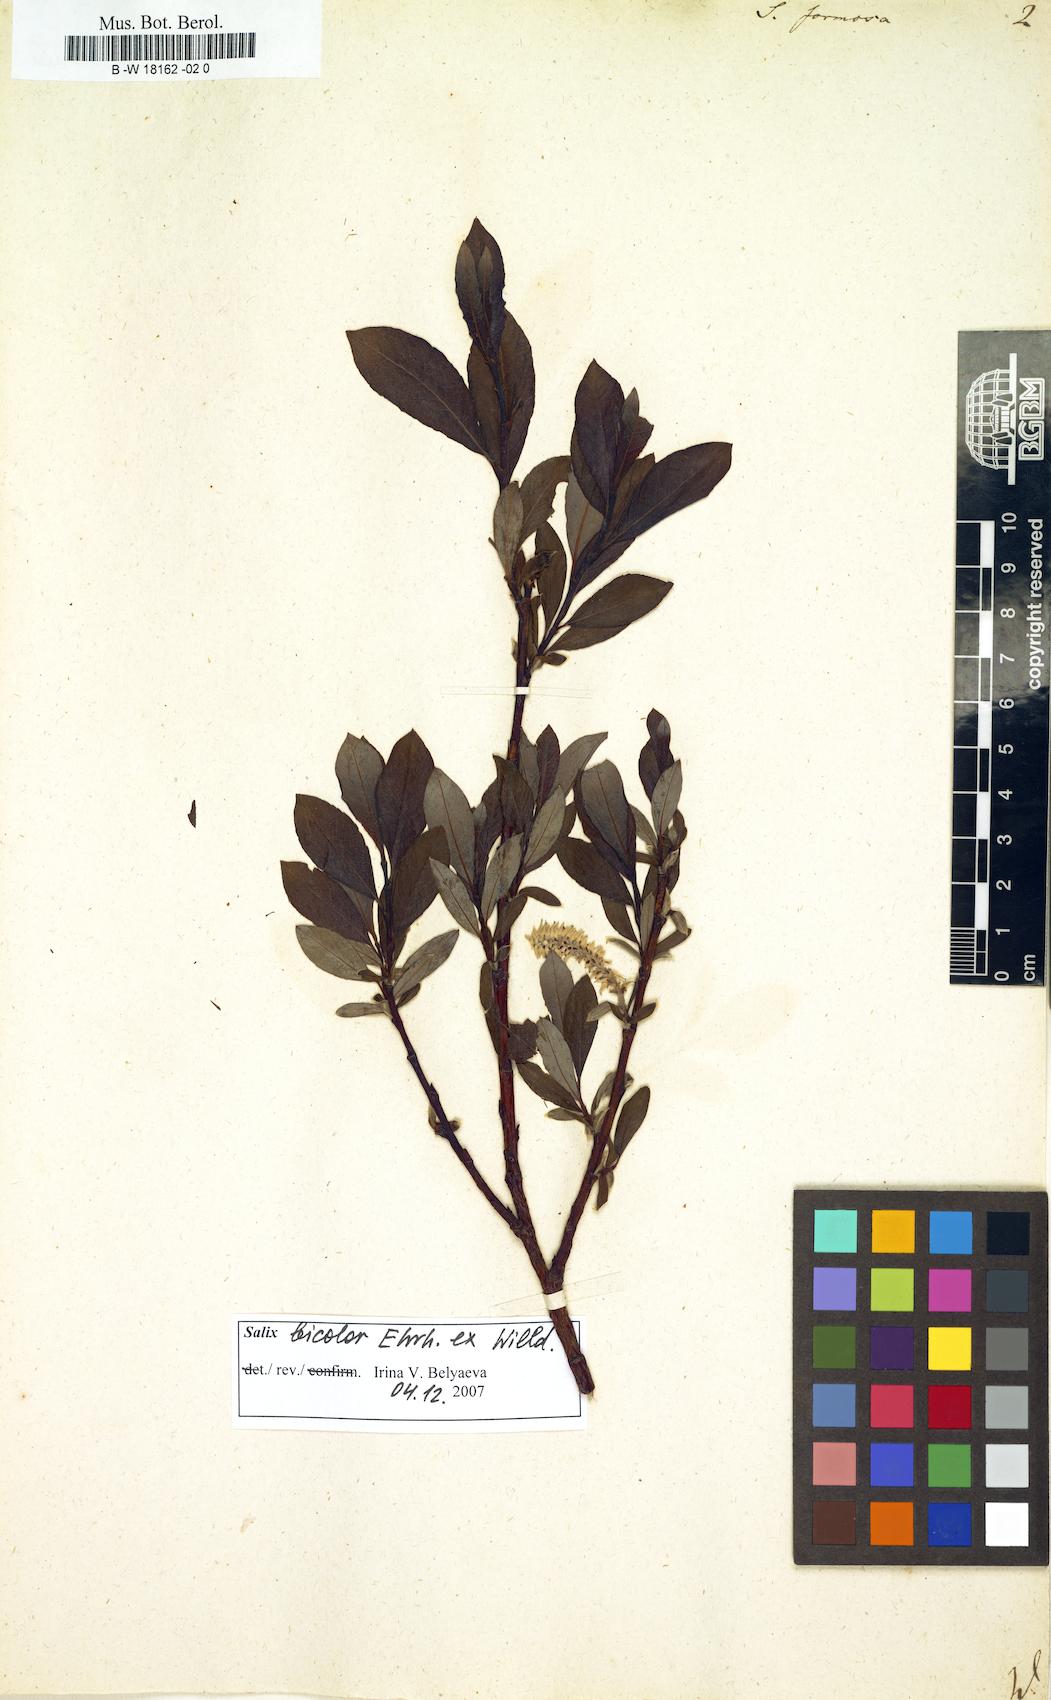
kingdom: Plantae
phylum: Tracheophyta
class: Magnoliopsida
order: Malpighiales
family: Salicaceae
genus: Salix
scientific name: Salix foetida
